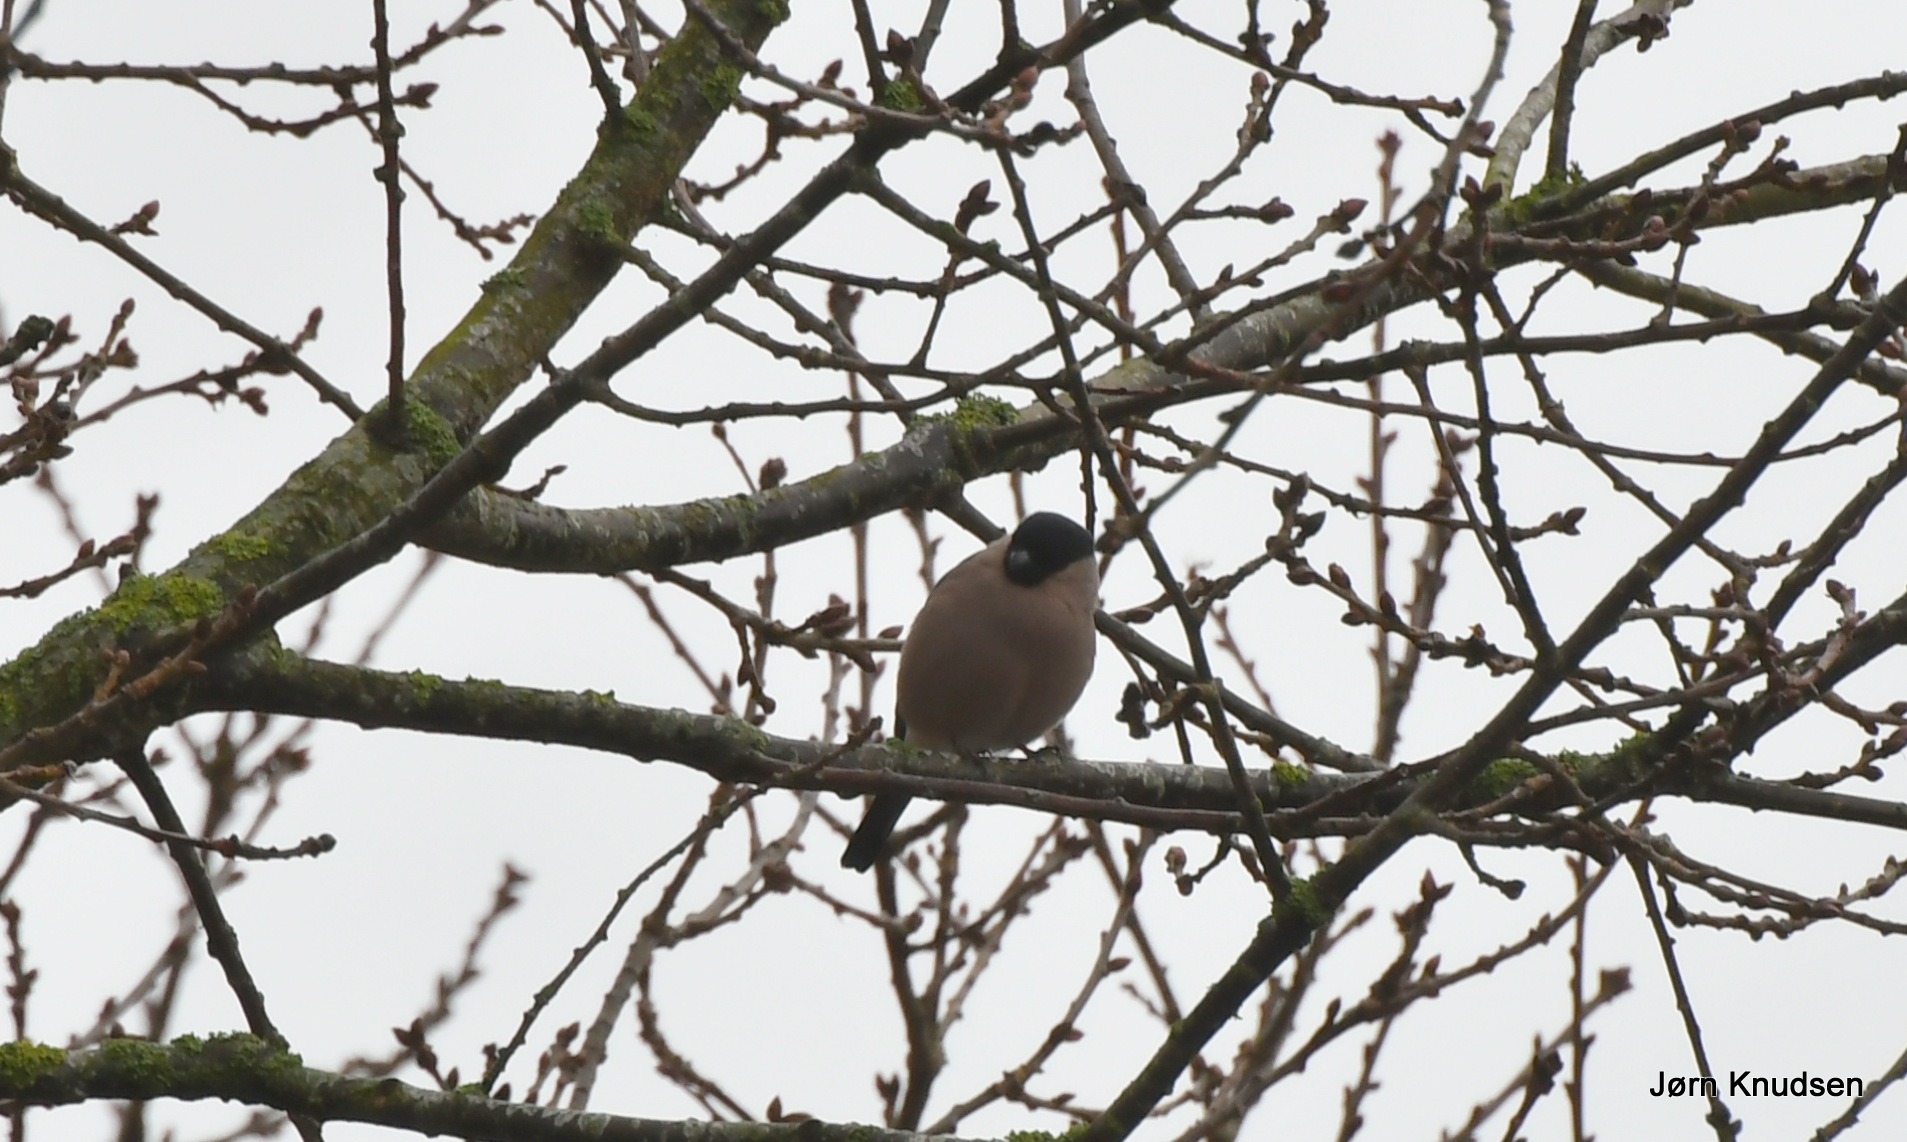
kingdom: Animalia
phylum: Chordata
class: Aves
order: Passeriformes
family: Fringillidae
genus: Pyrrhula
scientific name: Pyrrhula pyrrhula
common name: Dompap
